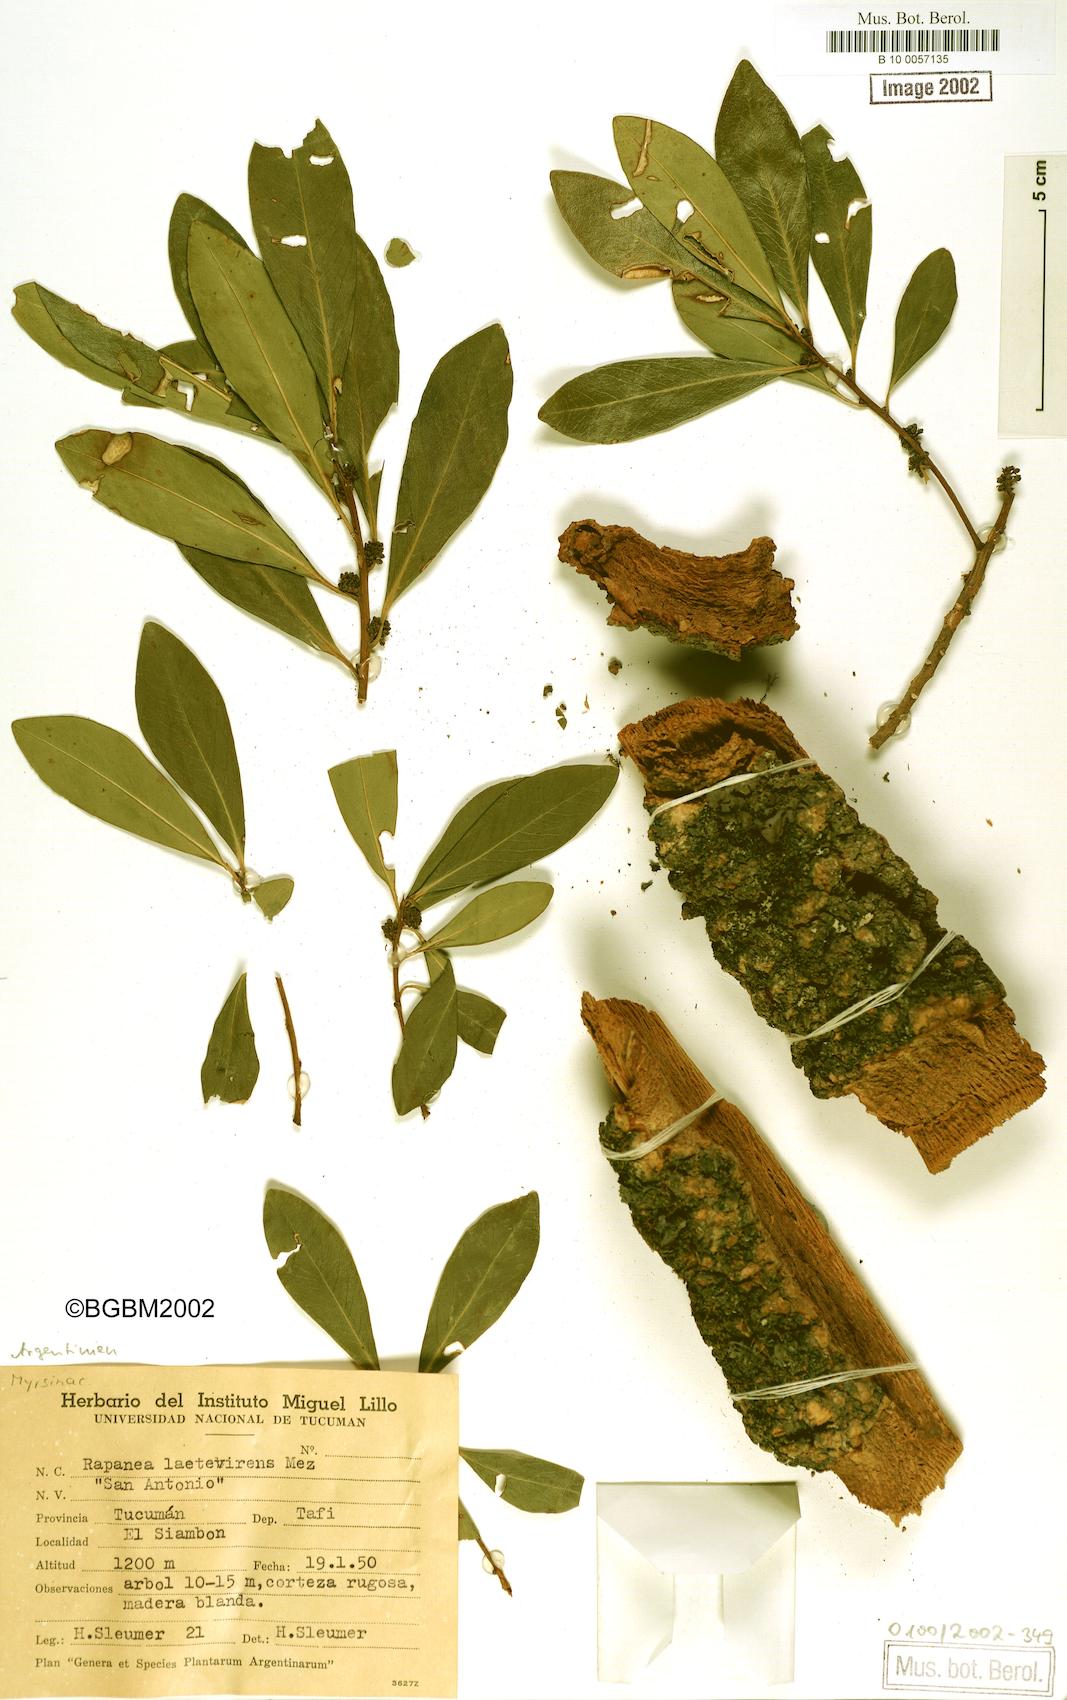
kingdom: Plantae
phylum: Tracheophyta
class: Magnoliopsida
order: Ericales
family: Primulaceae
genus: Myrsine
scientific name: Myrsine laetevirens
